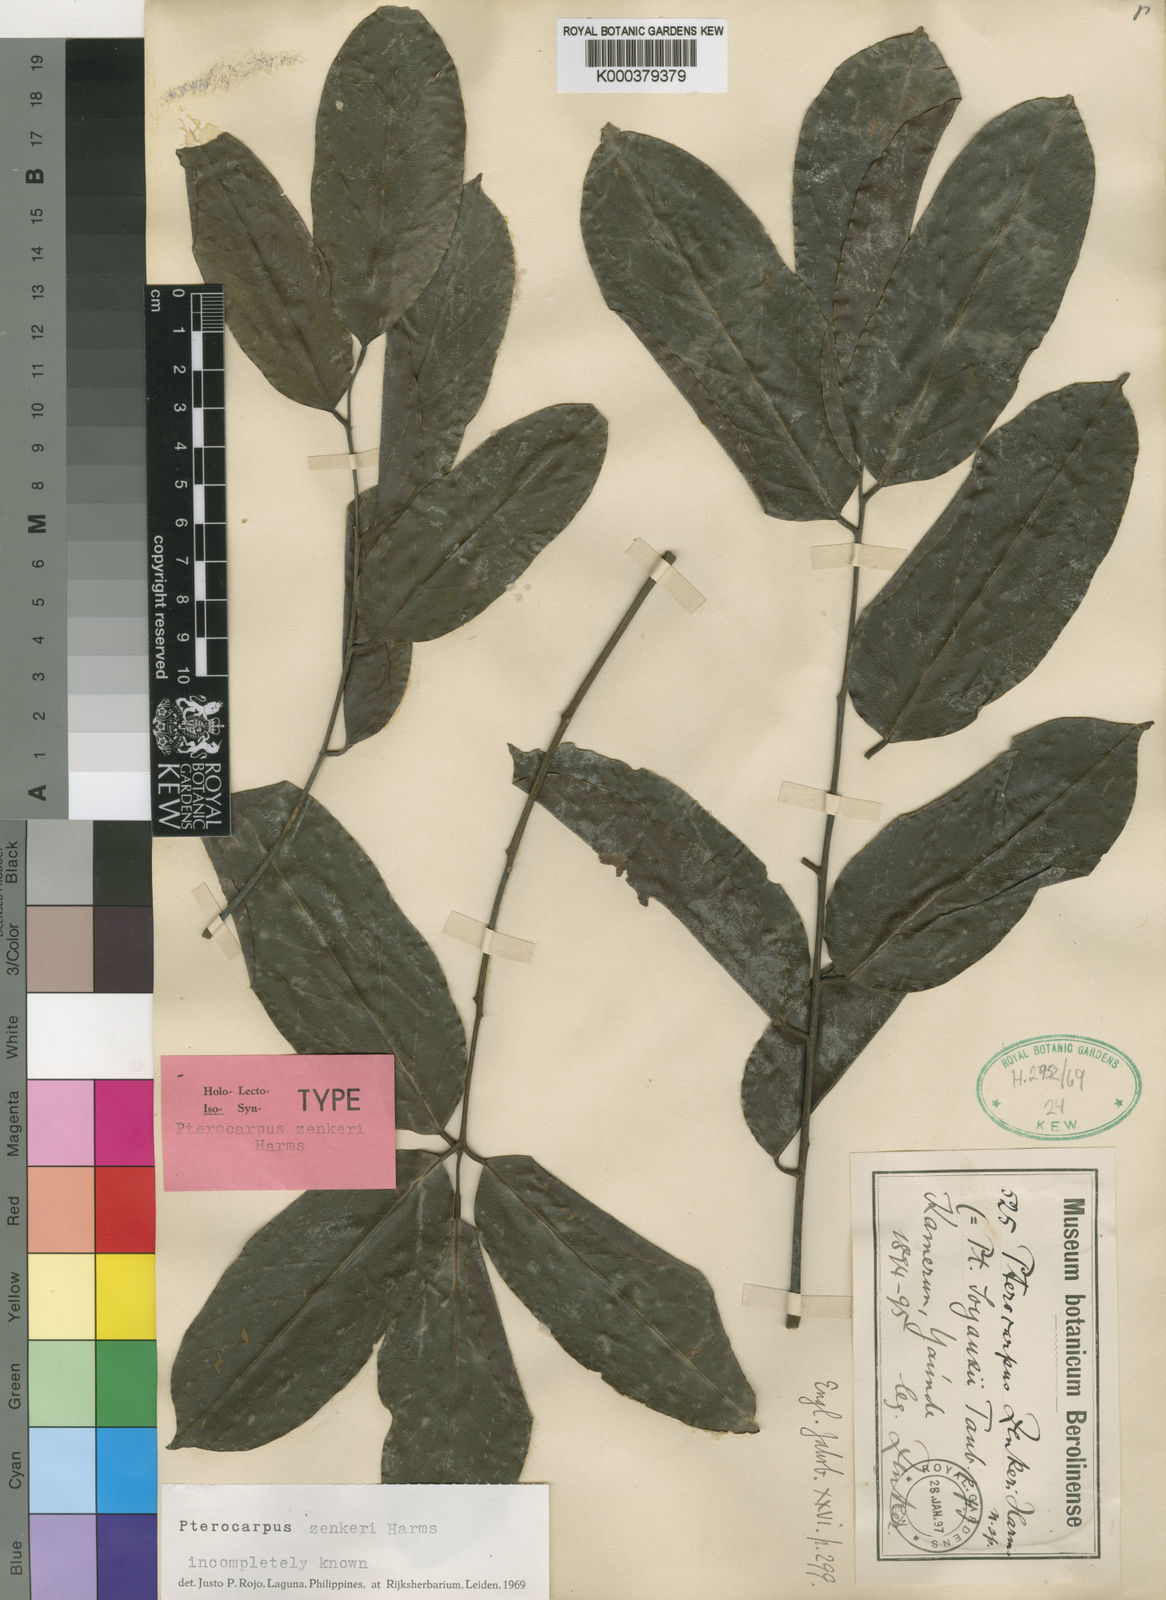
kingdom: Plantae
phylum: Tracheophyta
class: Magnoliopsida
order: Fabales
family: Fabaceae
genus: Pterocarpus
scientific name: Pterocarpus zenkeri
